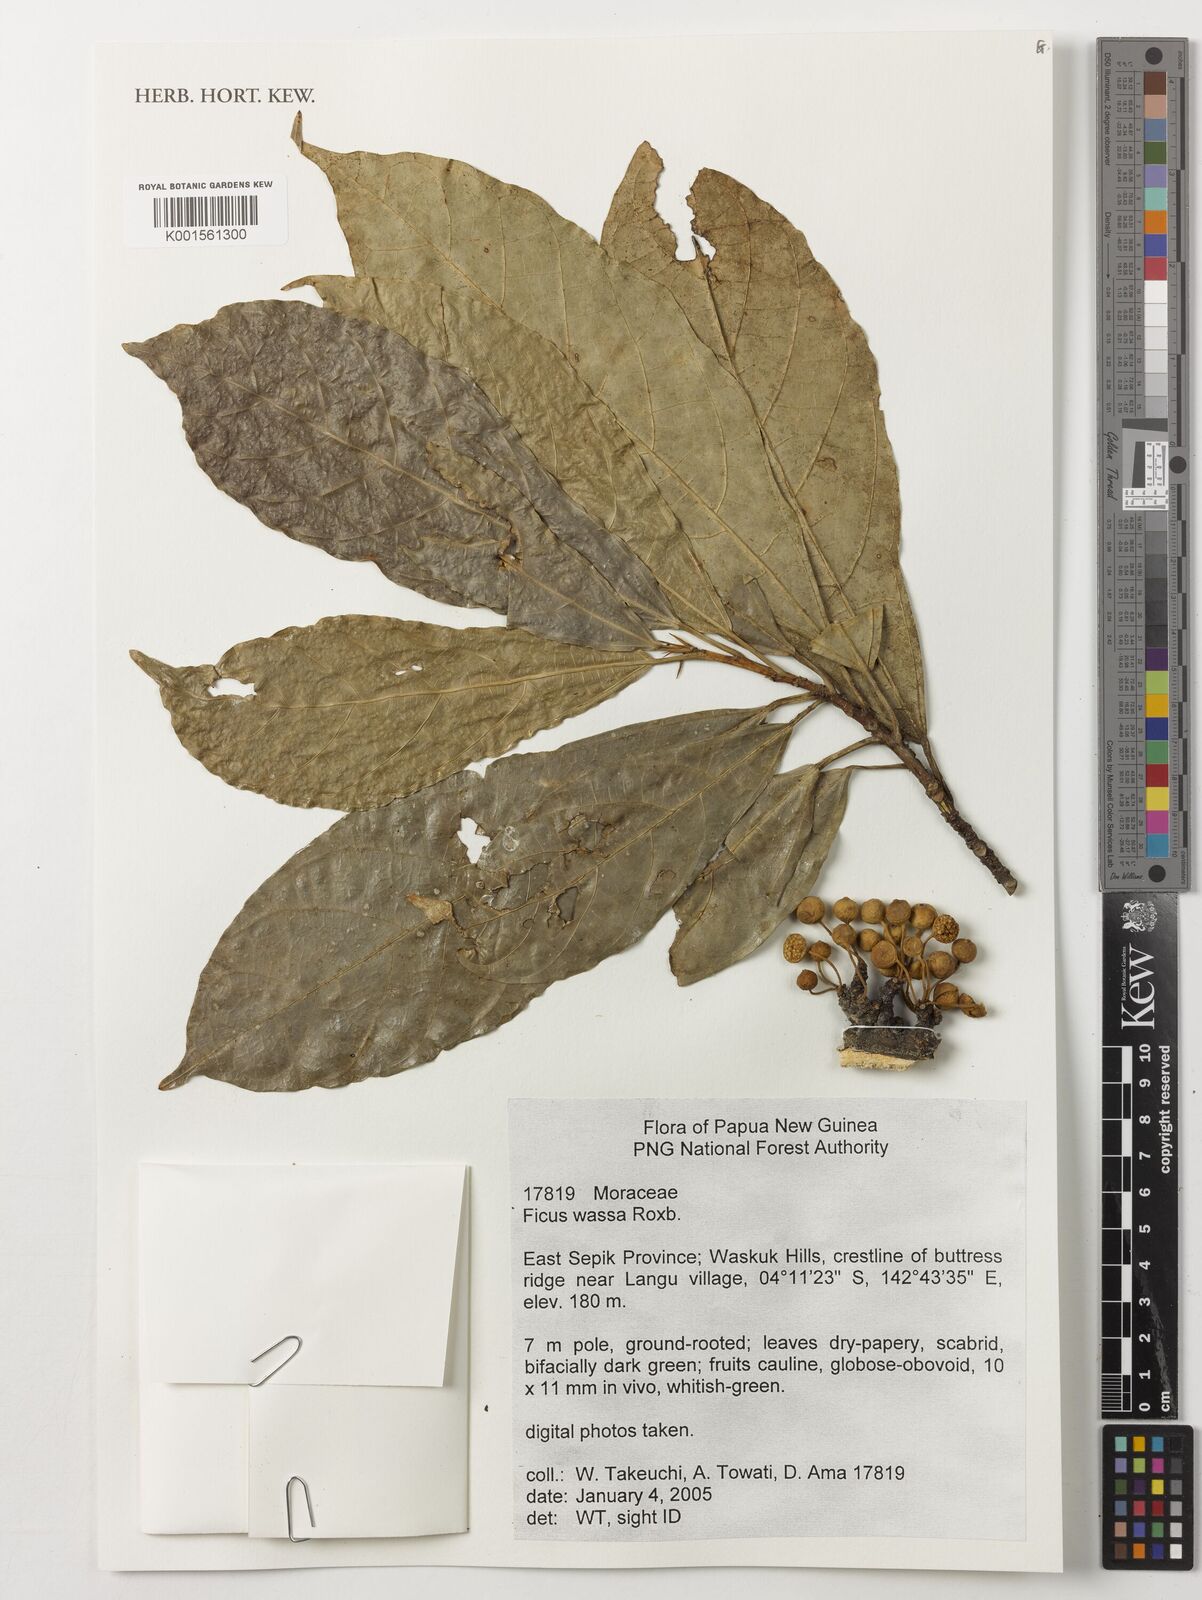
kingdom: Plantae
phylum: Tracheophyta
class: Magnoliopsida
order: Rosales
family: Moraceae
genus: Ficus
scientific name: Ficus wassa
